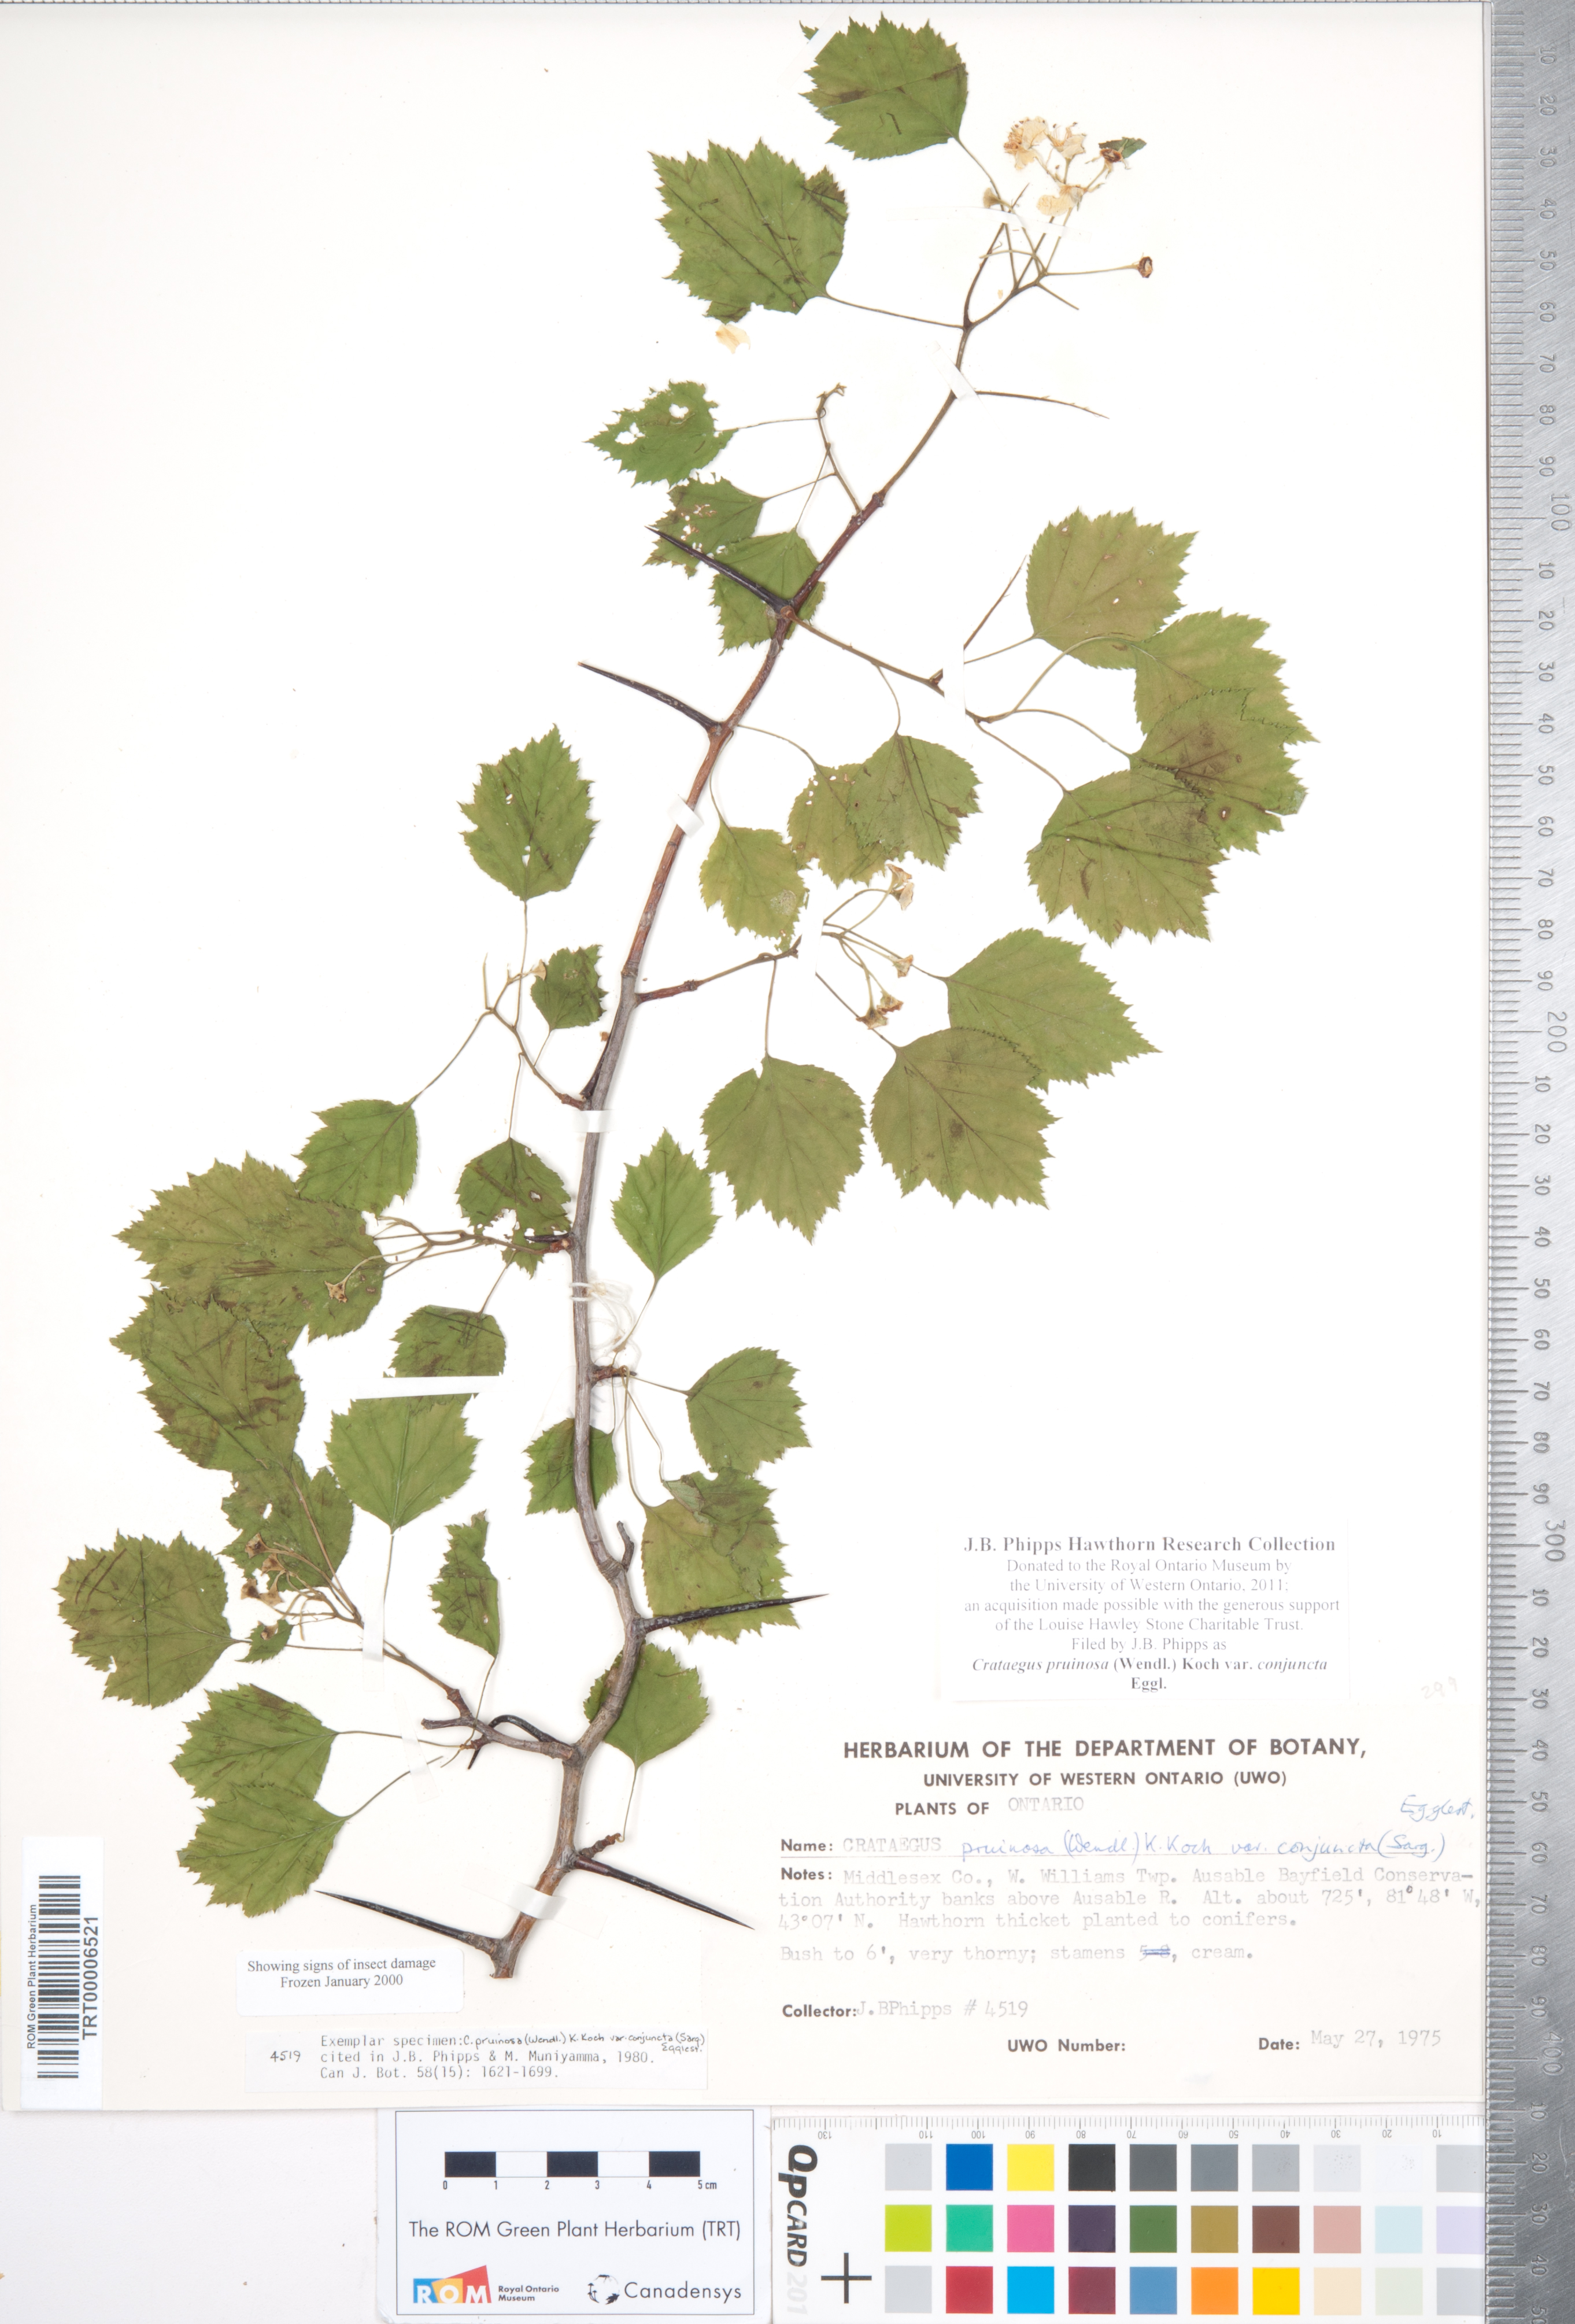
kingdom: Plantae
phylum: Tracheophyta
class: Magnoliopsida
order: Rosales
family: Rosaceae
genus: Crataegus
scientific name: Crataegus pruinosa
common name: Waxy-fruit hawthorn
